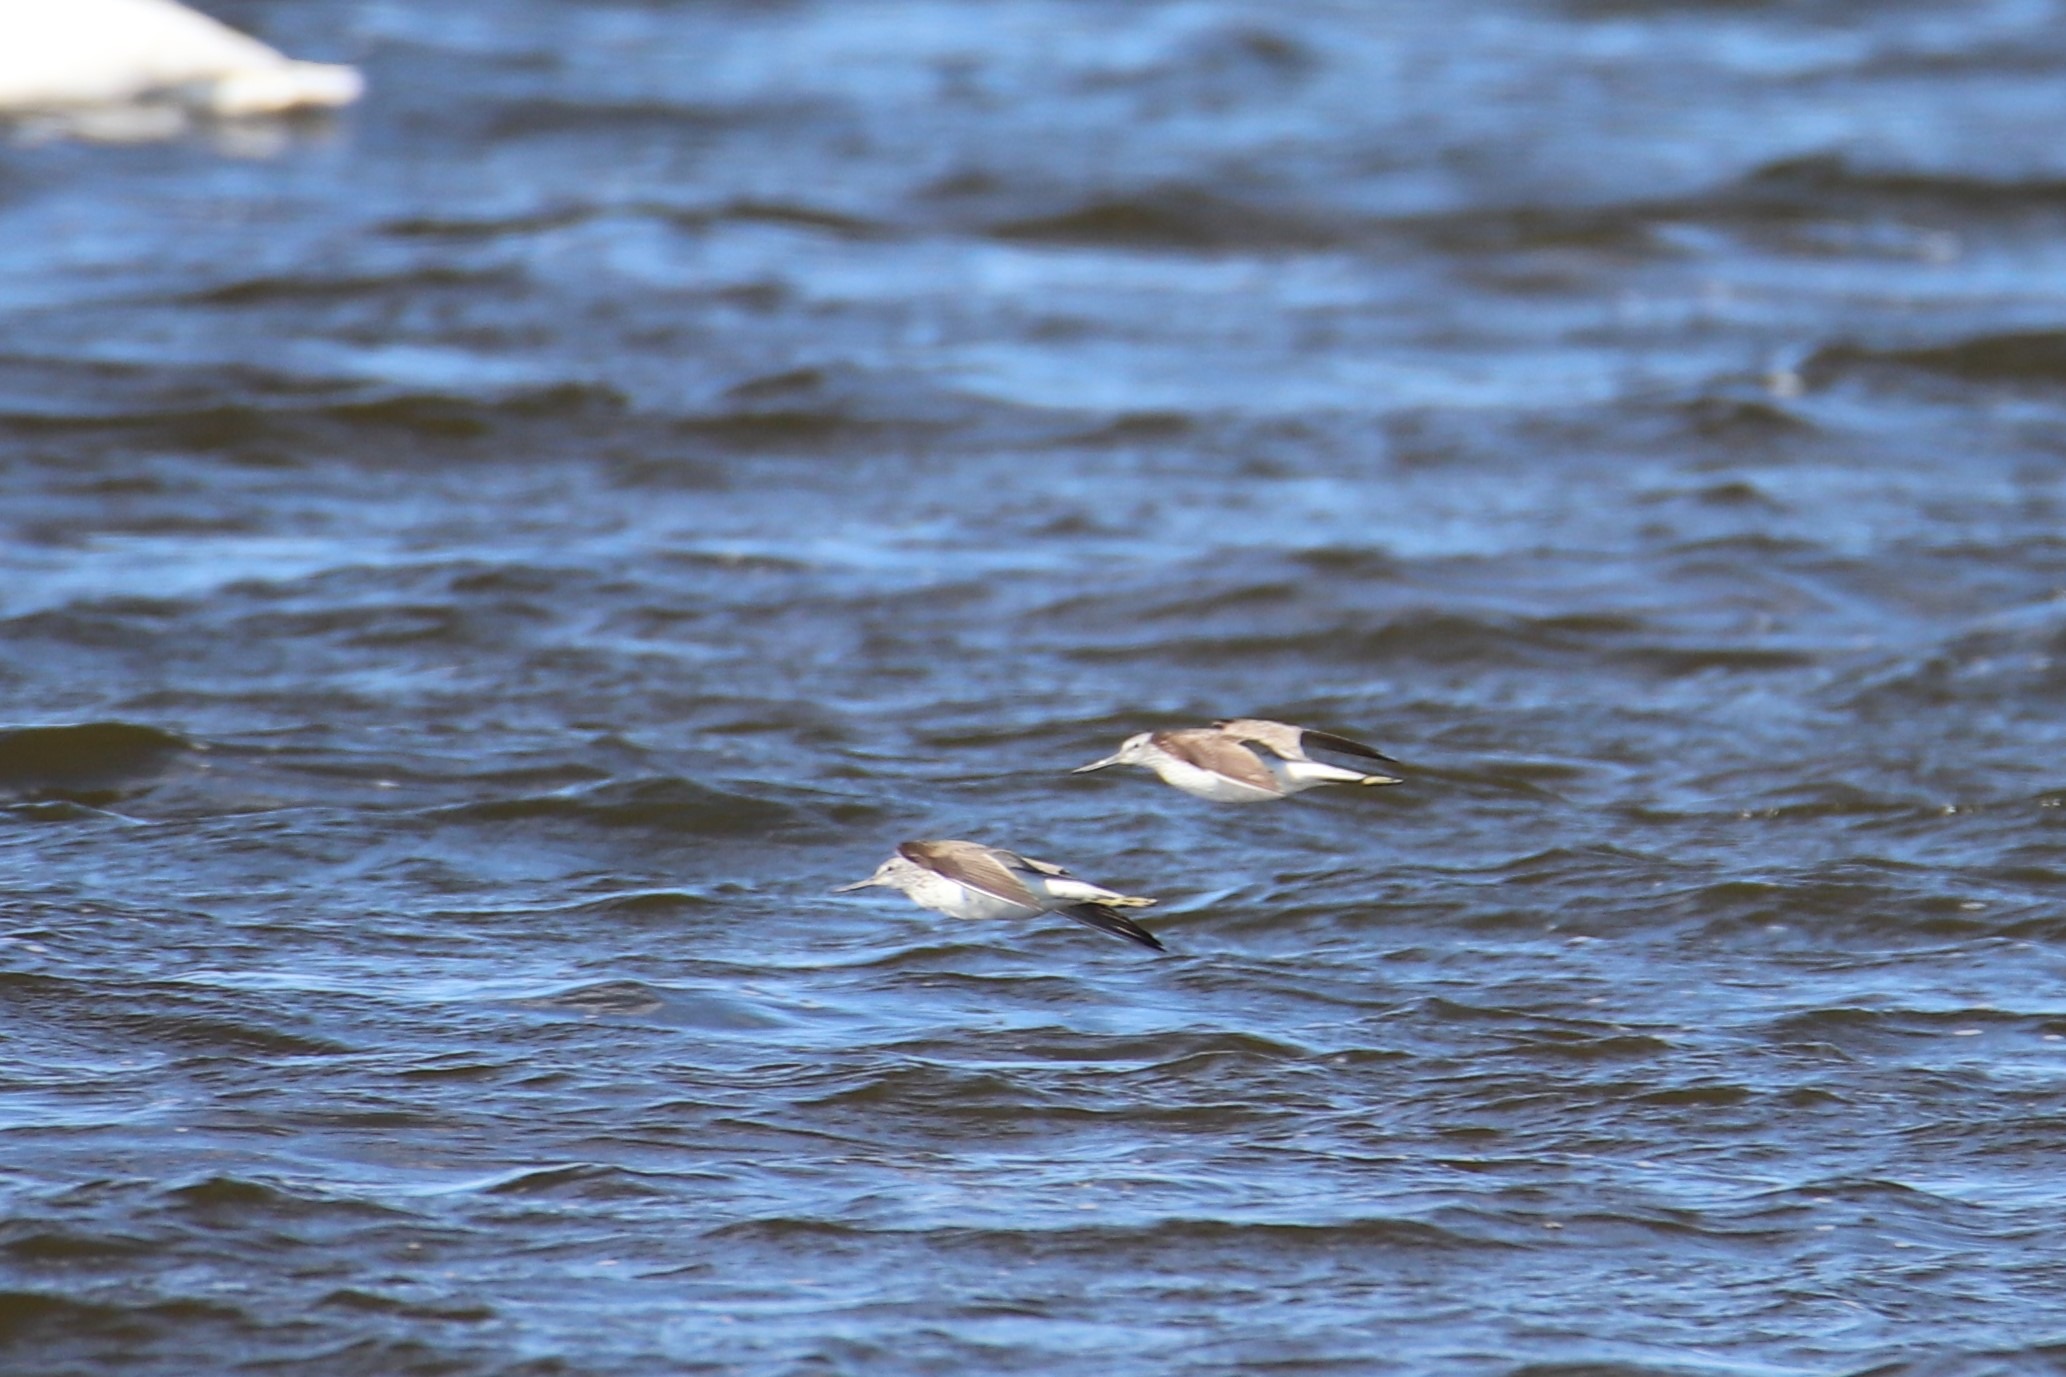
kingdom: Animalia
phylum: Chordata
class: Aves
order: Charadriiformes
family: Scolopacidae
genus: Tringa
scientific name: Tringa nebularia
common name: Hvidklire
